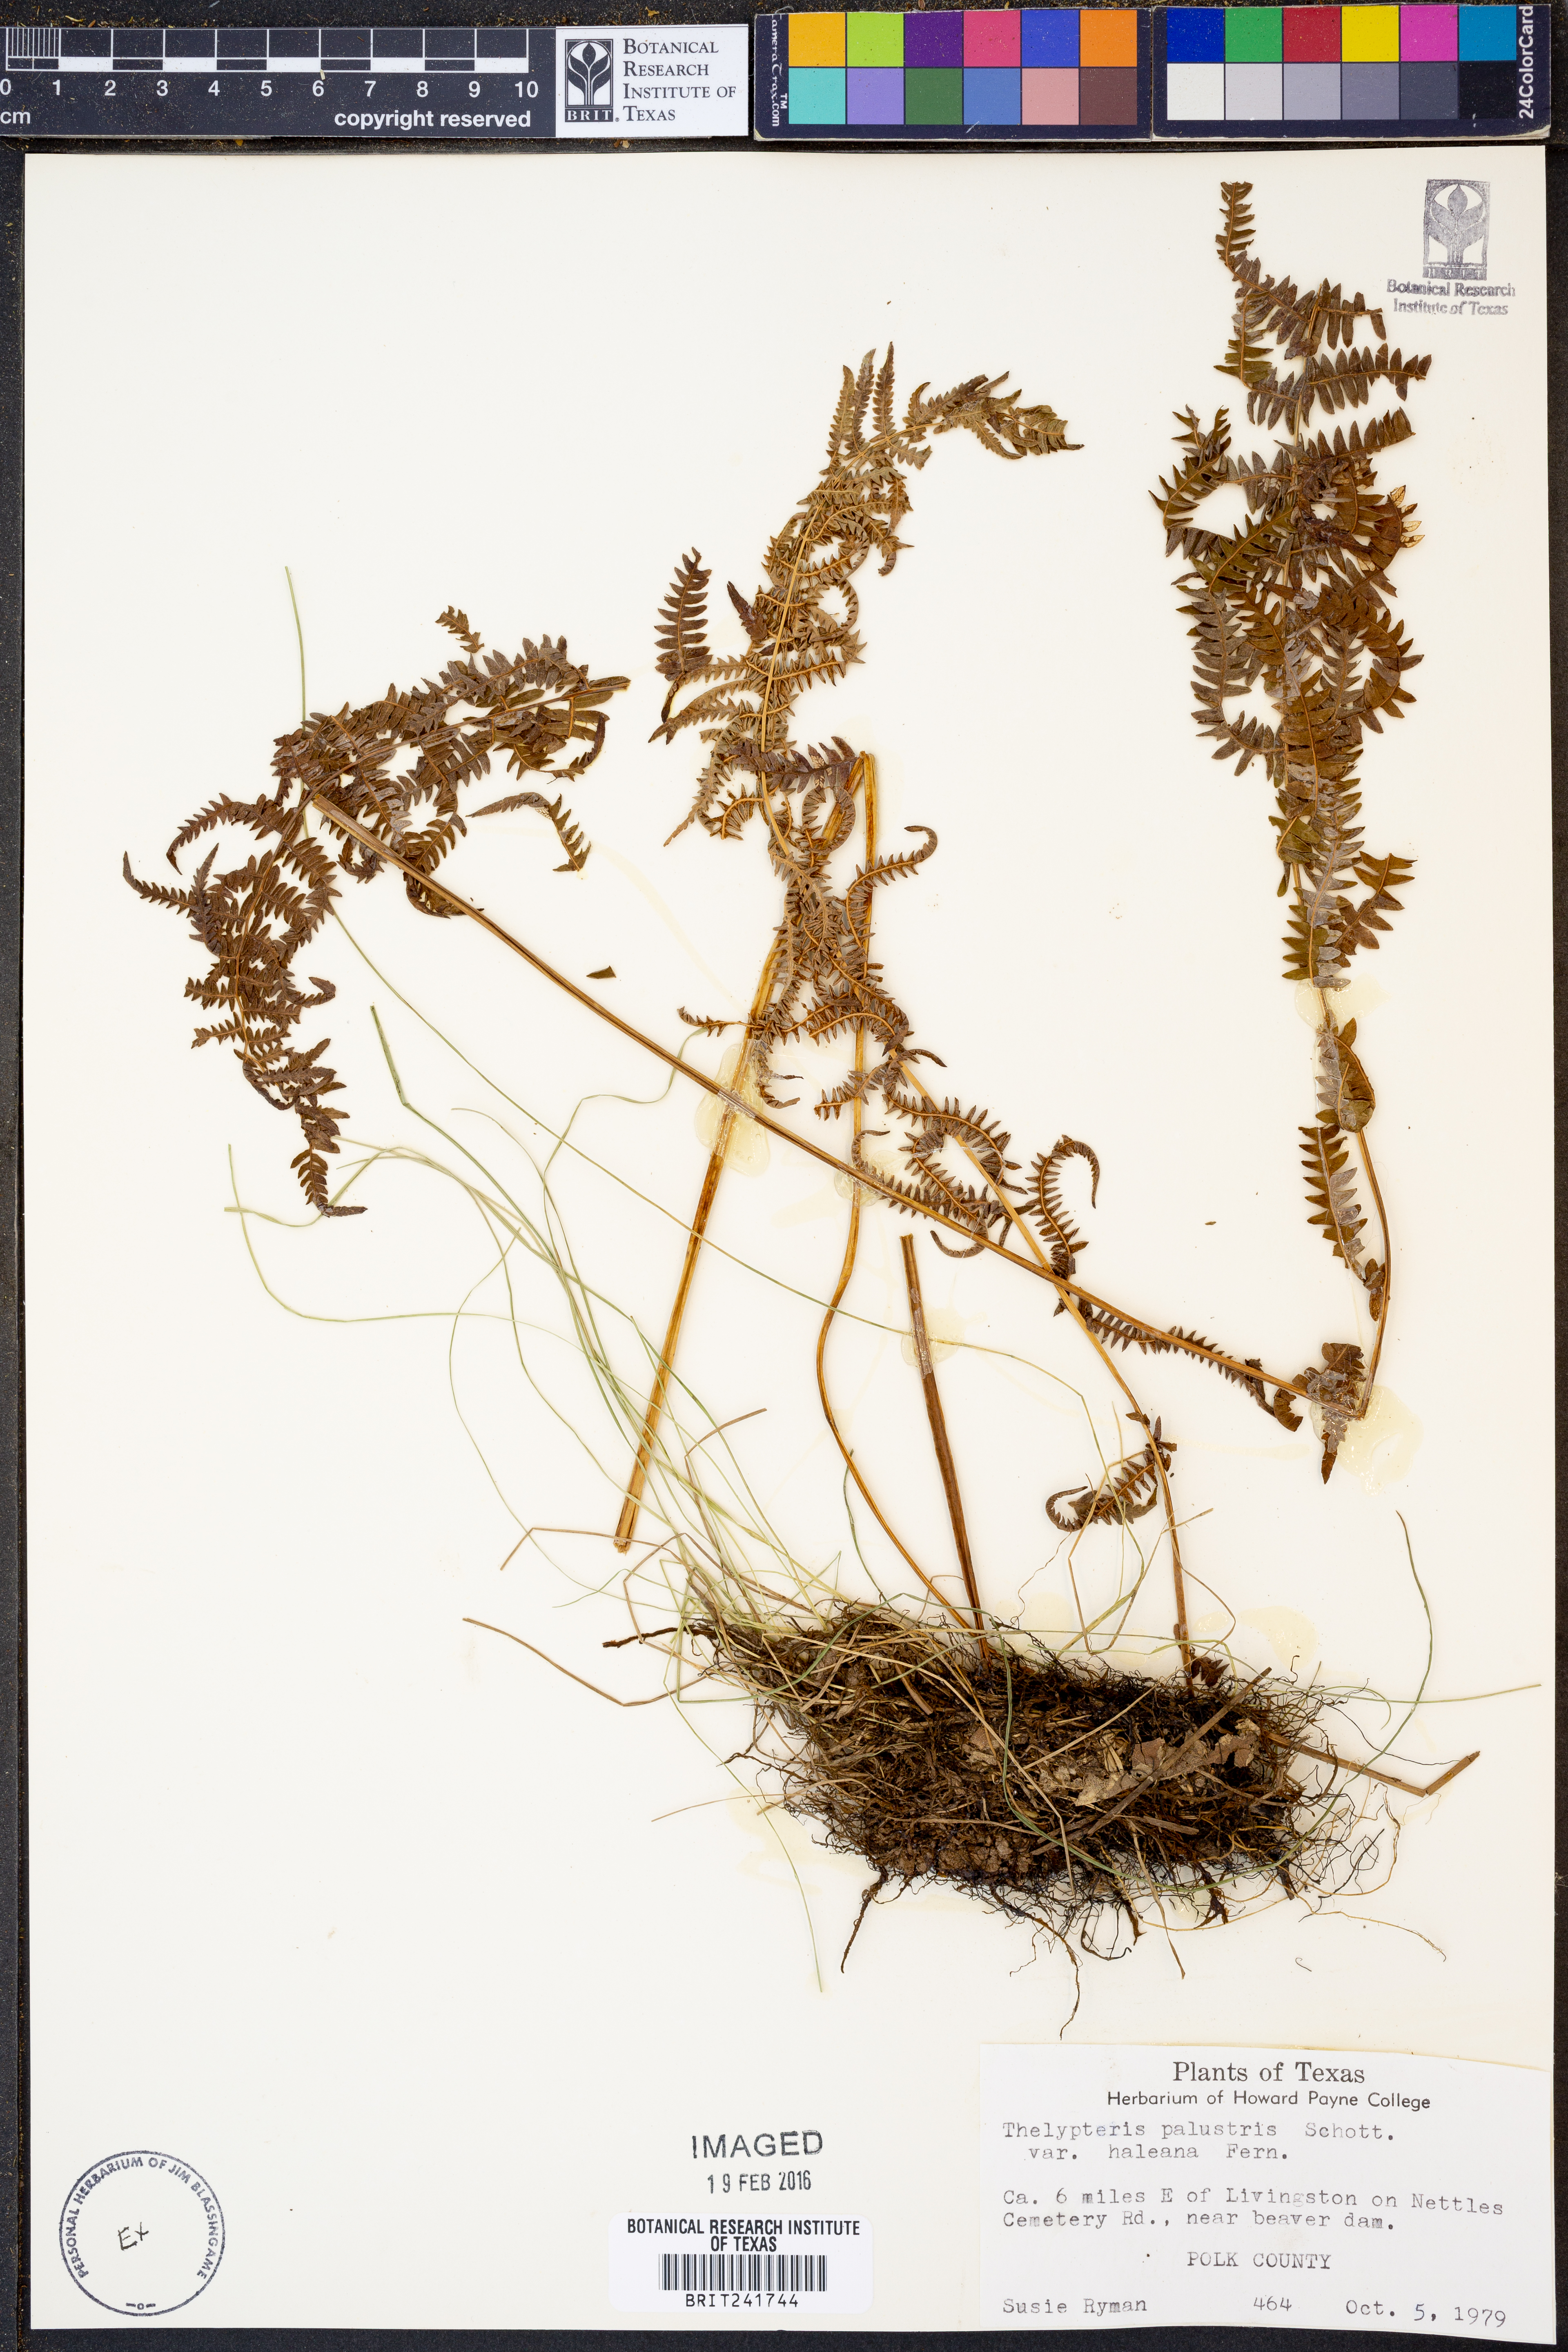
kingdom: Plantae
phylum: Tracheophyta
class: Polypodiopsida
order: Polypodiales
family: Thelypteridaceae
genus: Thelypteris
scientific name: Thelypteris palustris
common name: Marsh fern
